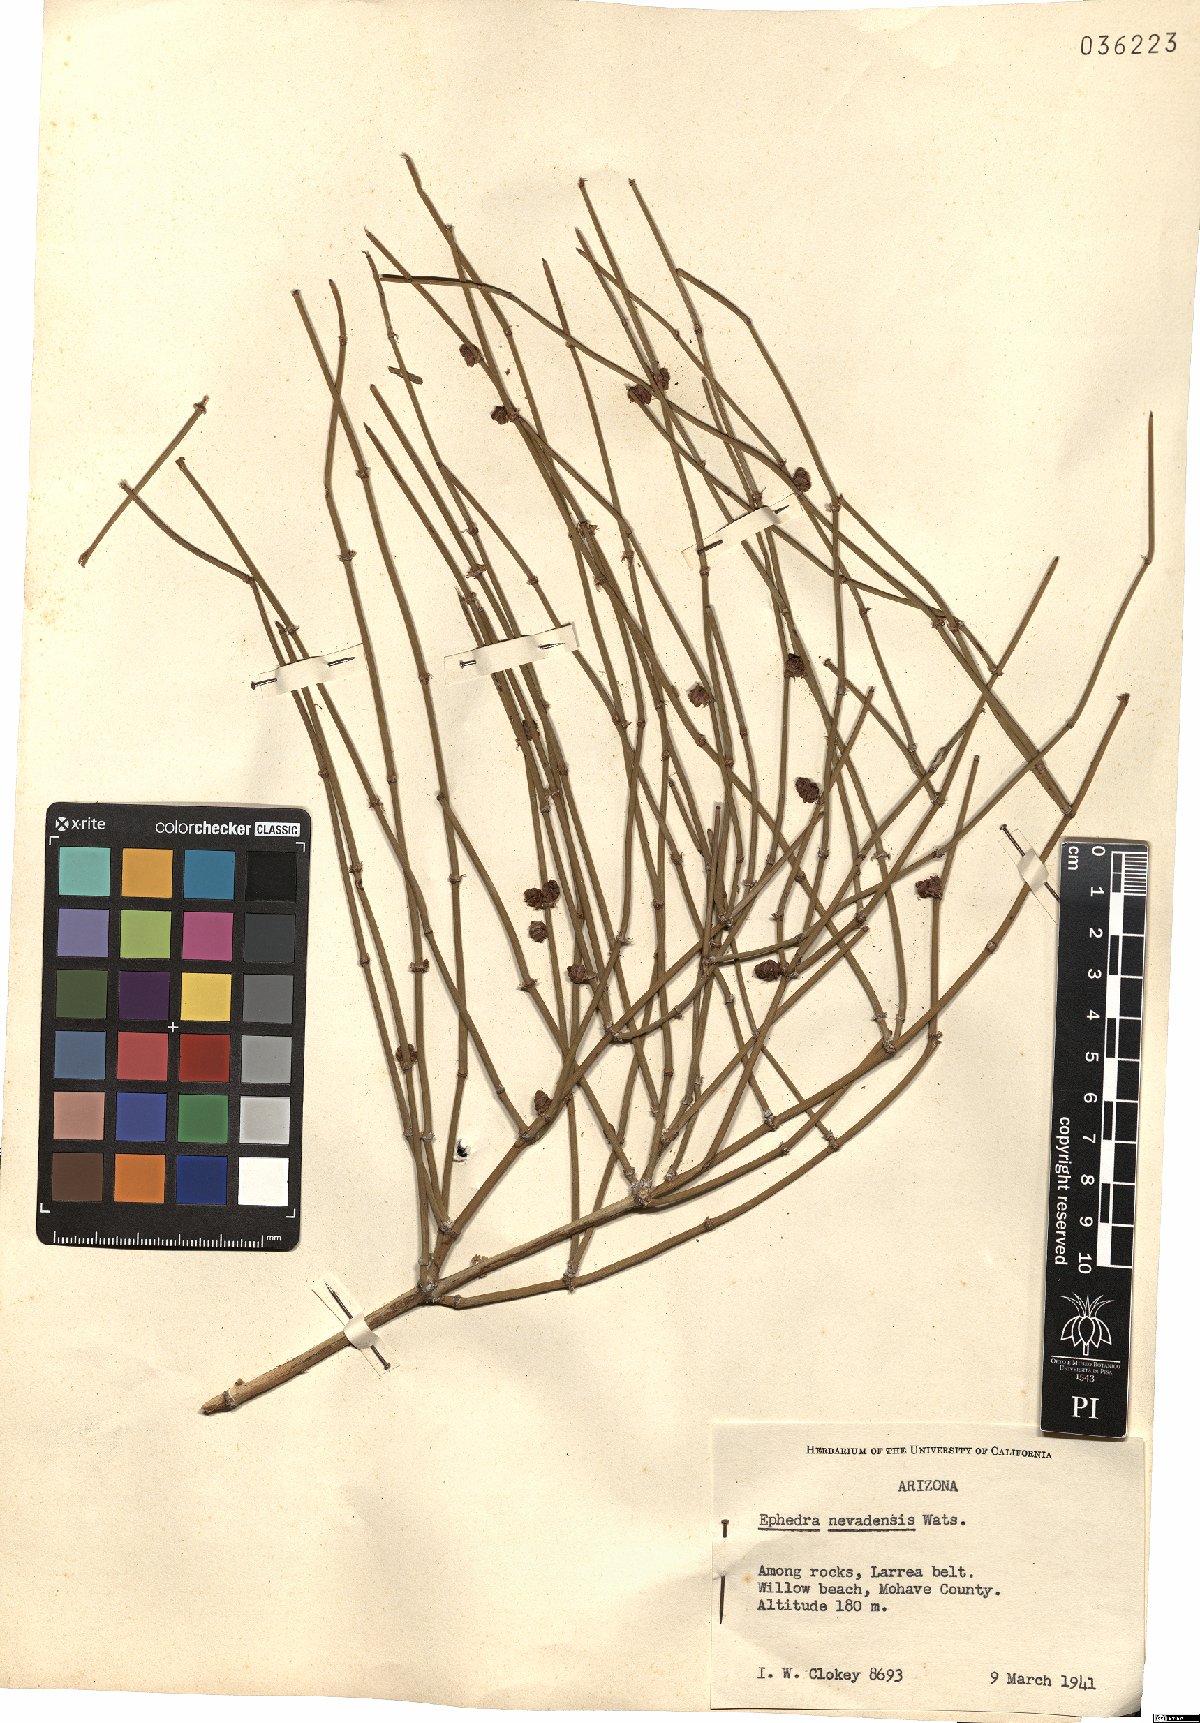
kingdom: Plantae
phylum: Tracheophyta
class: Gnetopsida
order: Ephedrales
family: Ephedraceae
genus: Ephedra
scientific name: Ephedra nevadensis
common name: Gray ephedra
